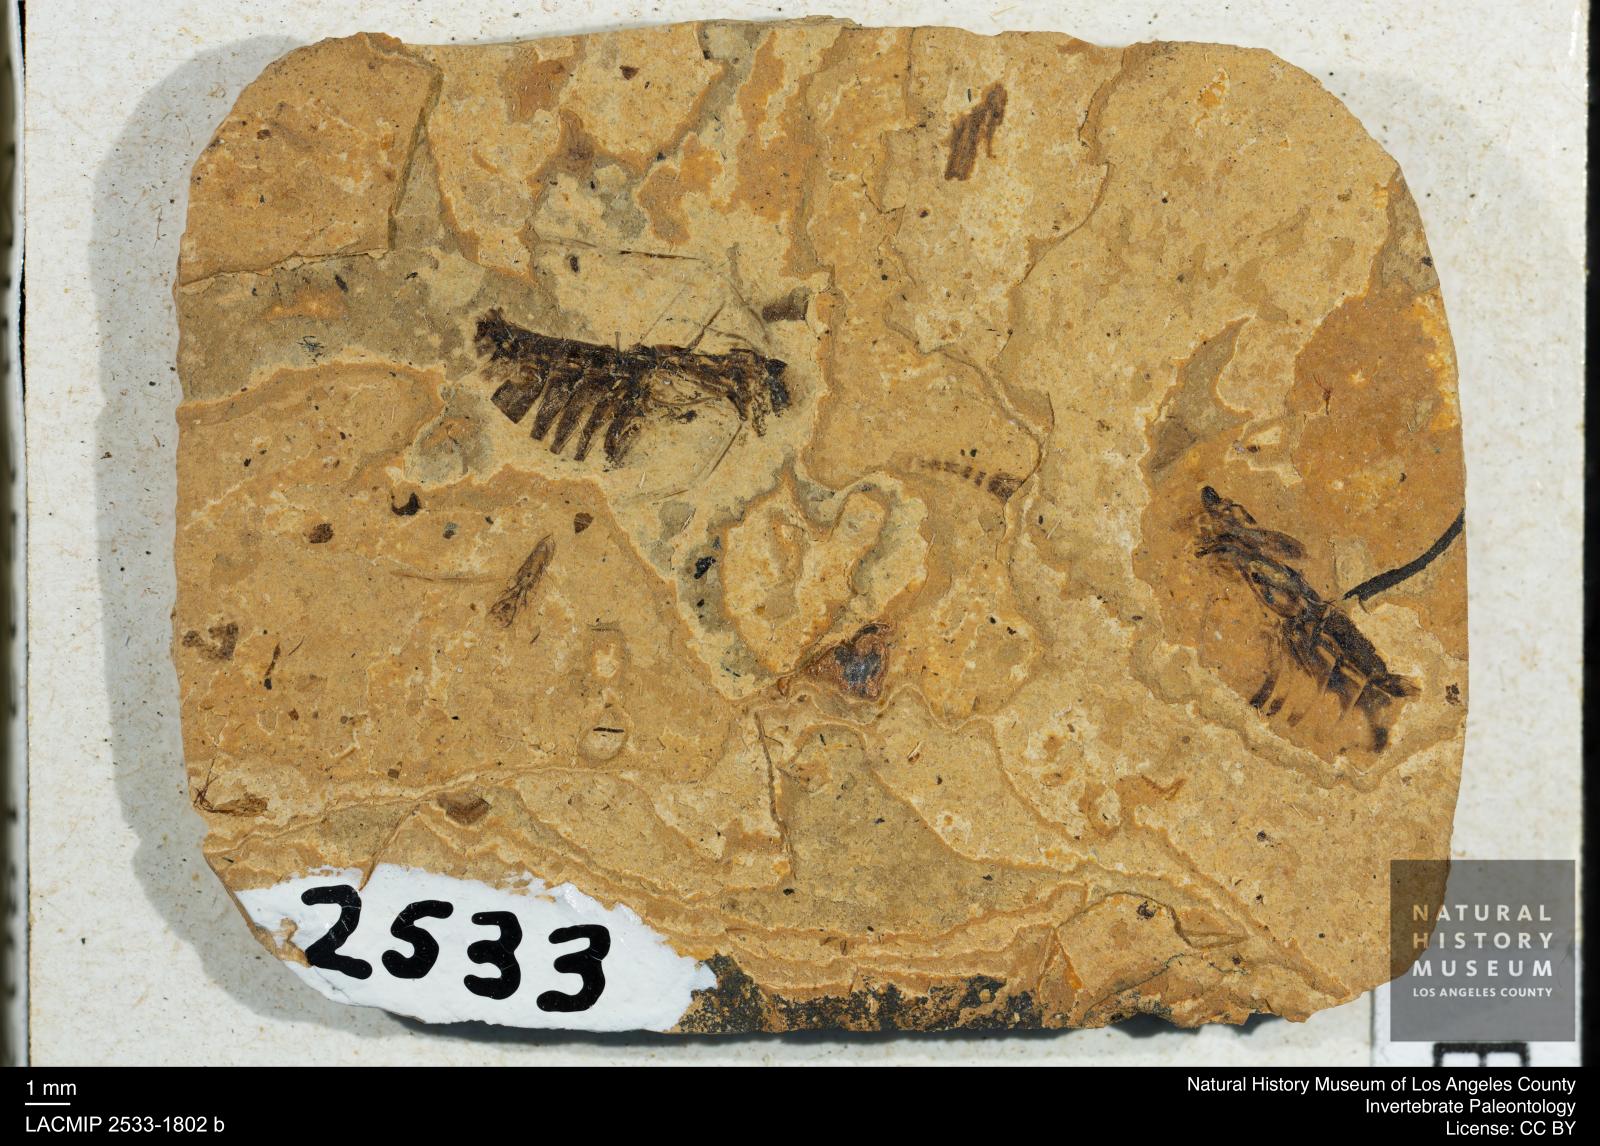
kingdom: Animalia
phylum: Arthropoda
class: Insecta
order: Hemiptera
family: Notonectidae
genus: Notonecta
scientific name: Notonecta
